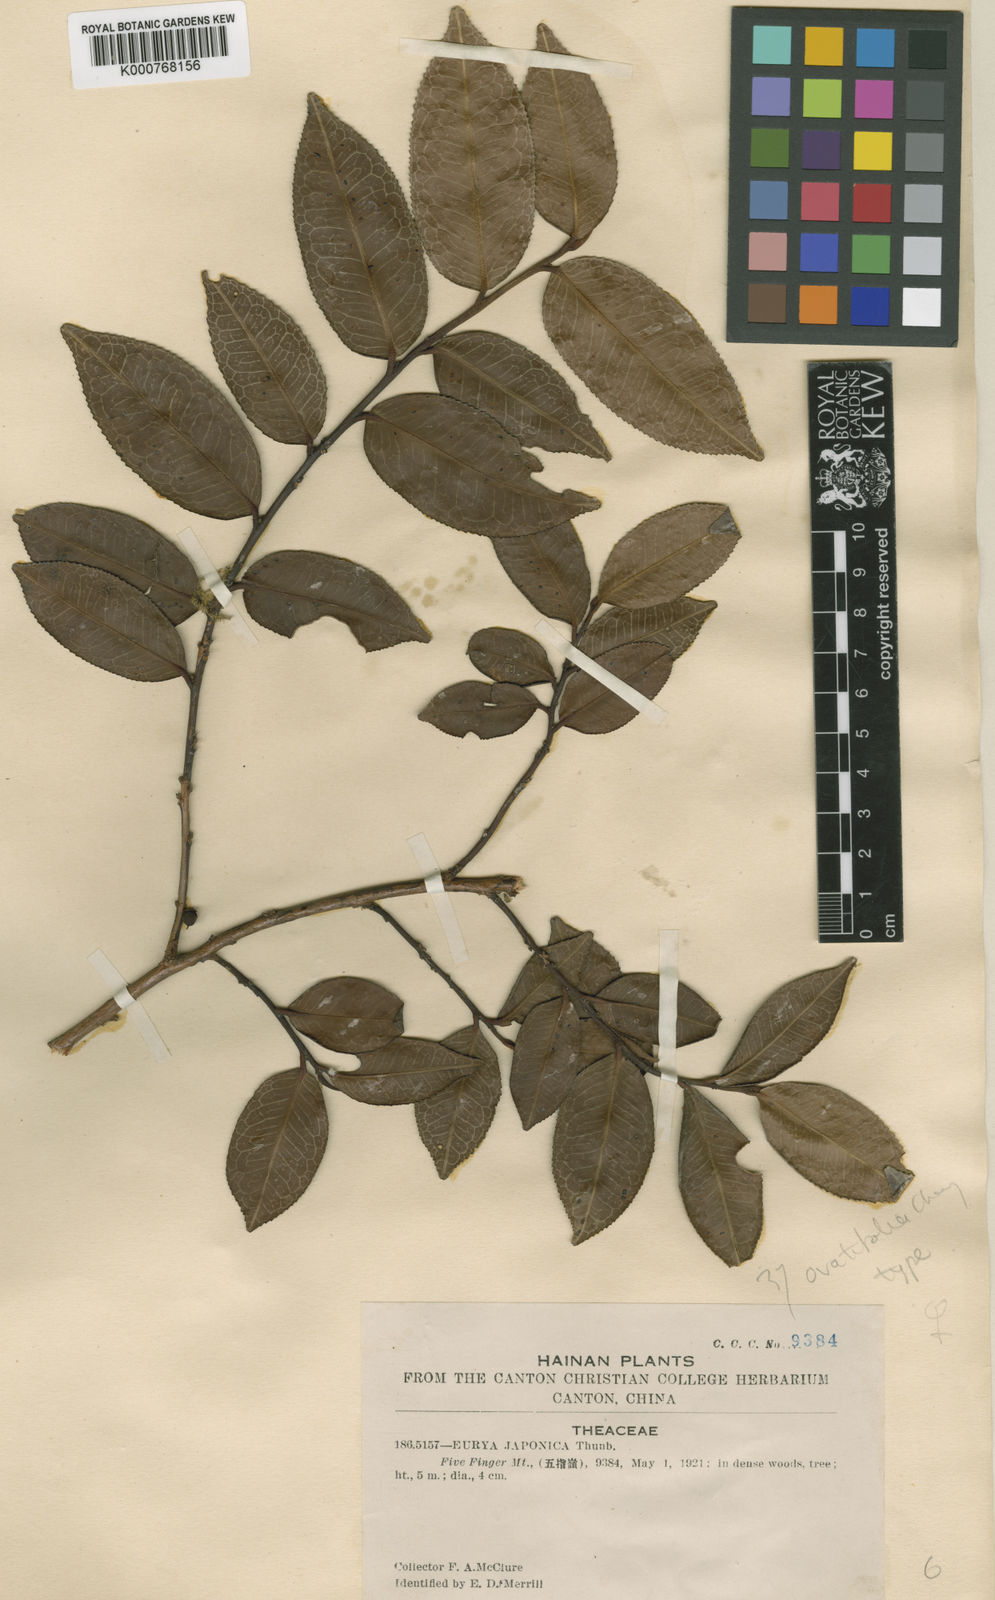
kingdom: Plantae
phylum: Tracheophyta
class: Magnoliopsida
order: Ericales
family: Pentaphylacaceae
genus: Eurya
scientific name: Eurya ovatifolia
